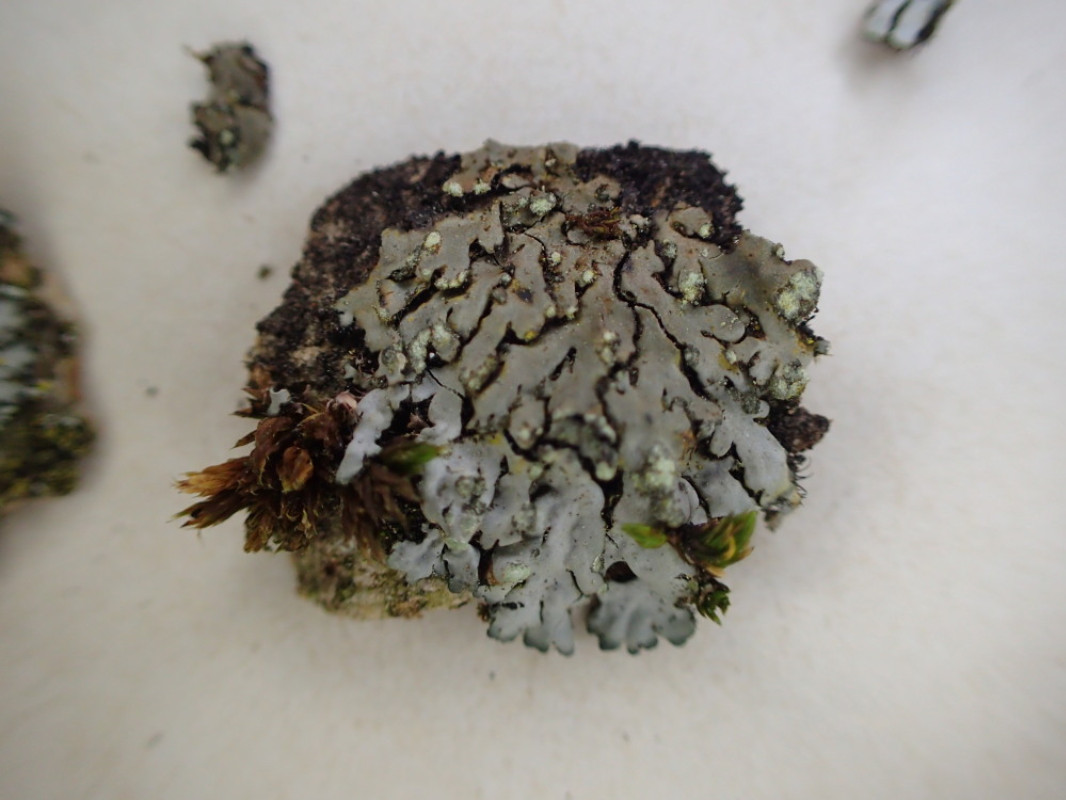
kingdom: Fungi
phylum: Ascomycota
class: Lecanoromycetes
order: Caliciales
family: Physciaceae
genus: Phaeophyscia
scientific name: Phaeophyscia orbicularis
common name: grågrøn rosetlav
